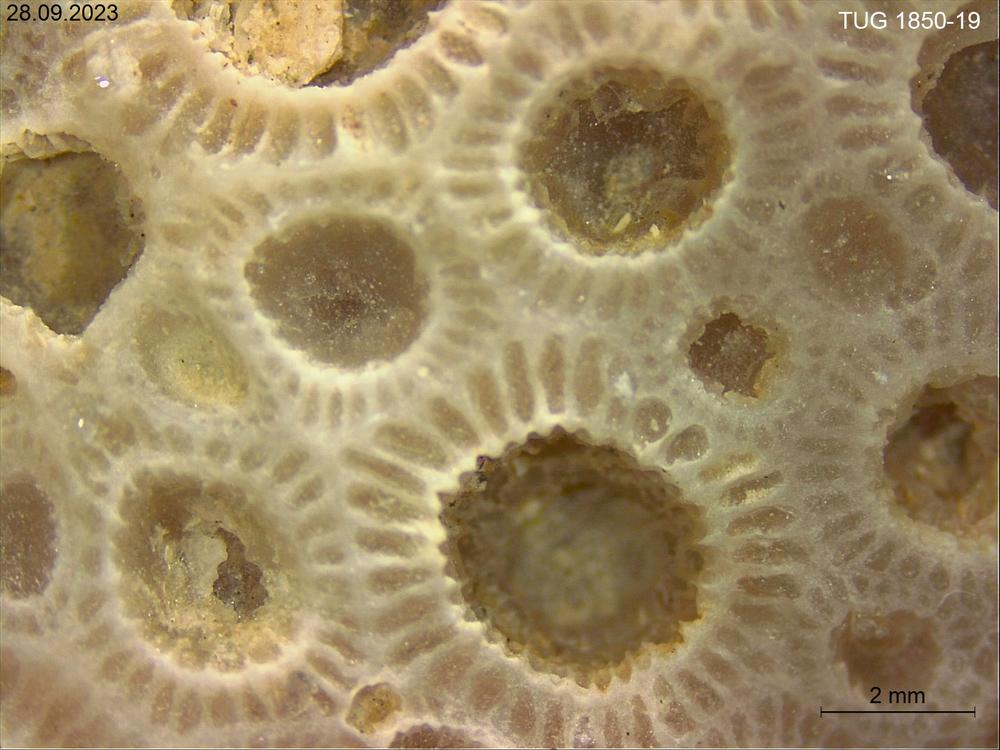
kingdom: Animalia
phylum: Cnidaria
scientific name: Cnidaria
